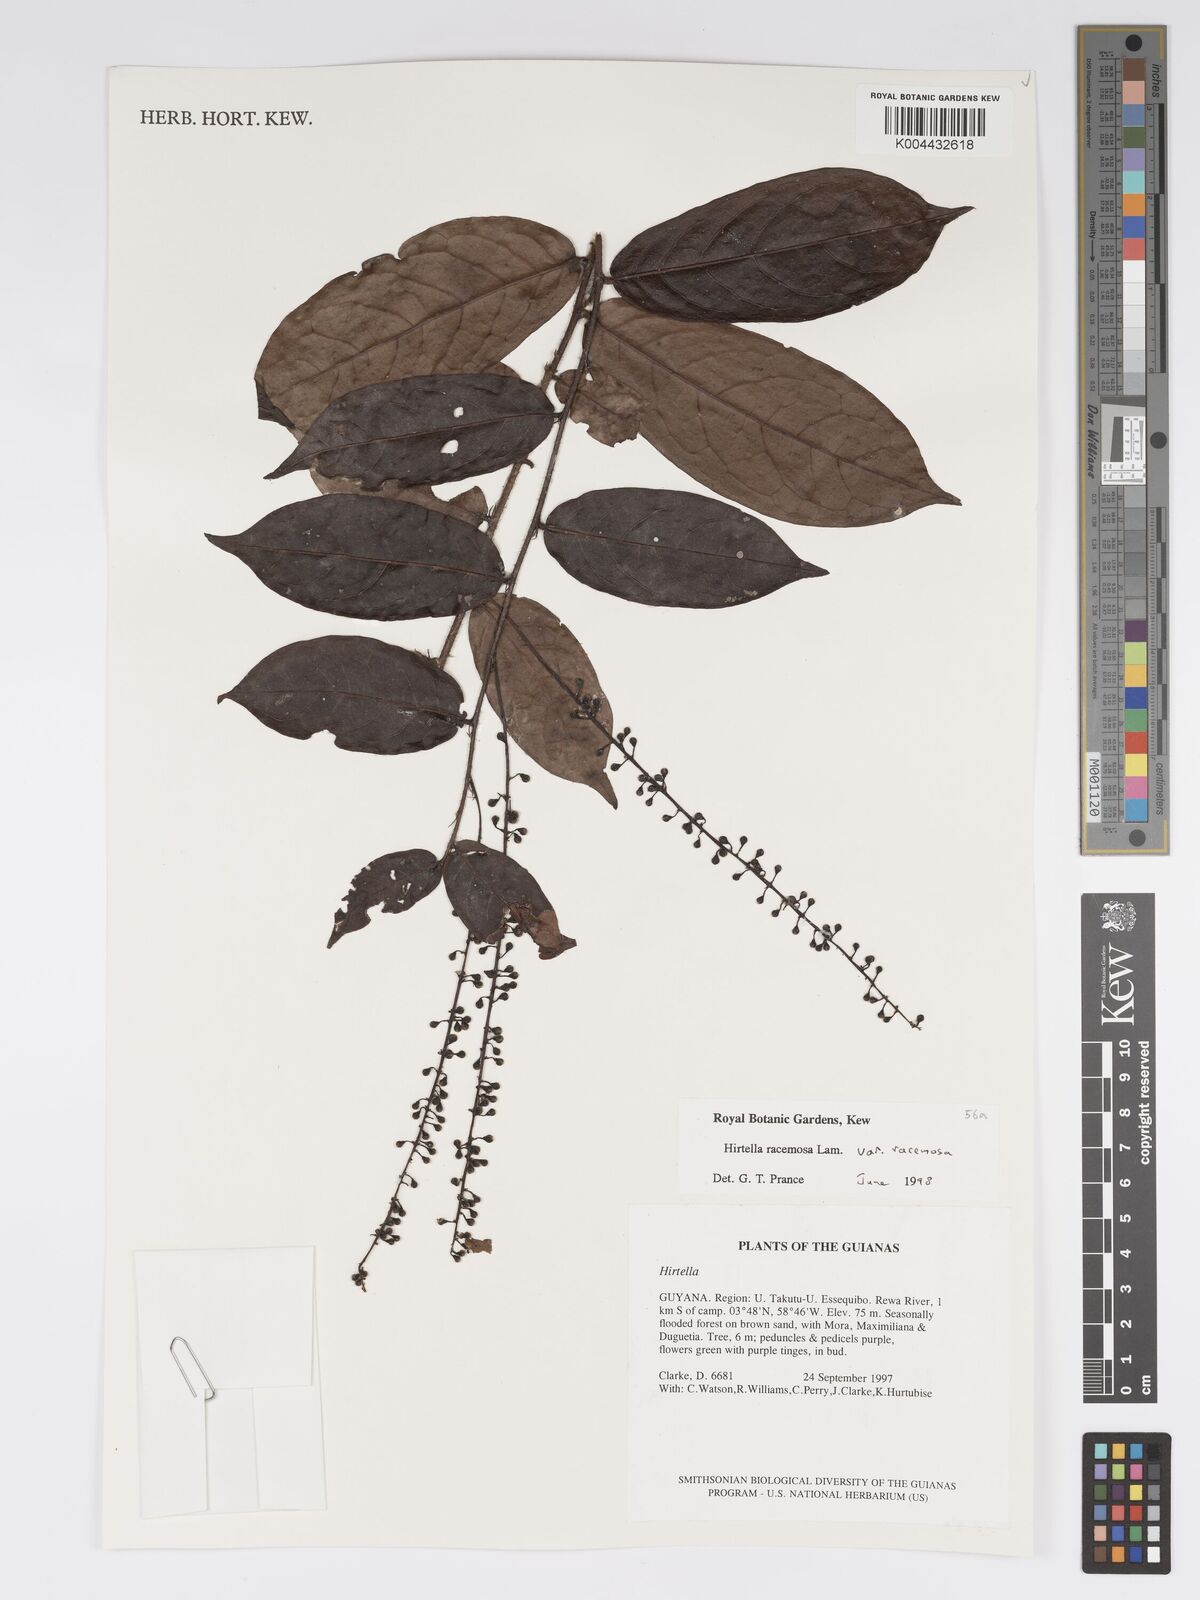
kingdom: Plantae
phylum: Tracheophyta
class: Magnoliopsida
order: Malpighiales
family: Chrysobalanaceae
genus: Hirtella
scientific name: Hirtella racemosa
